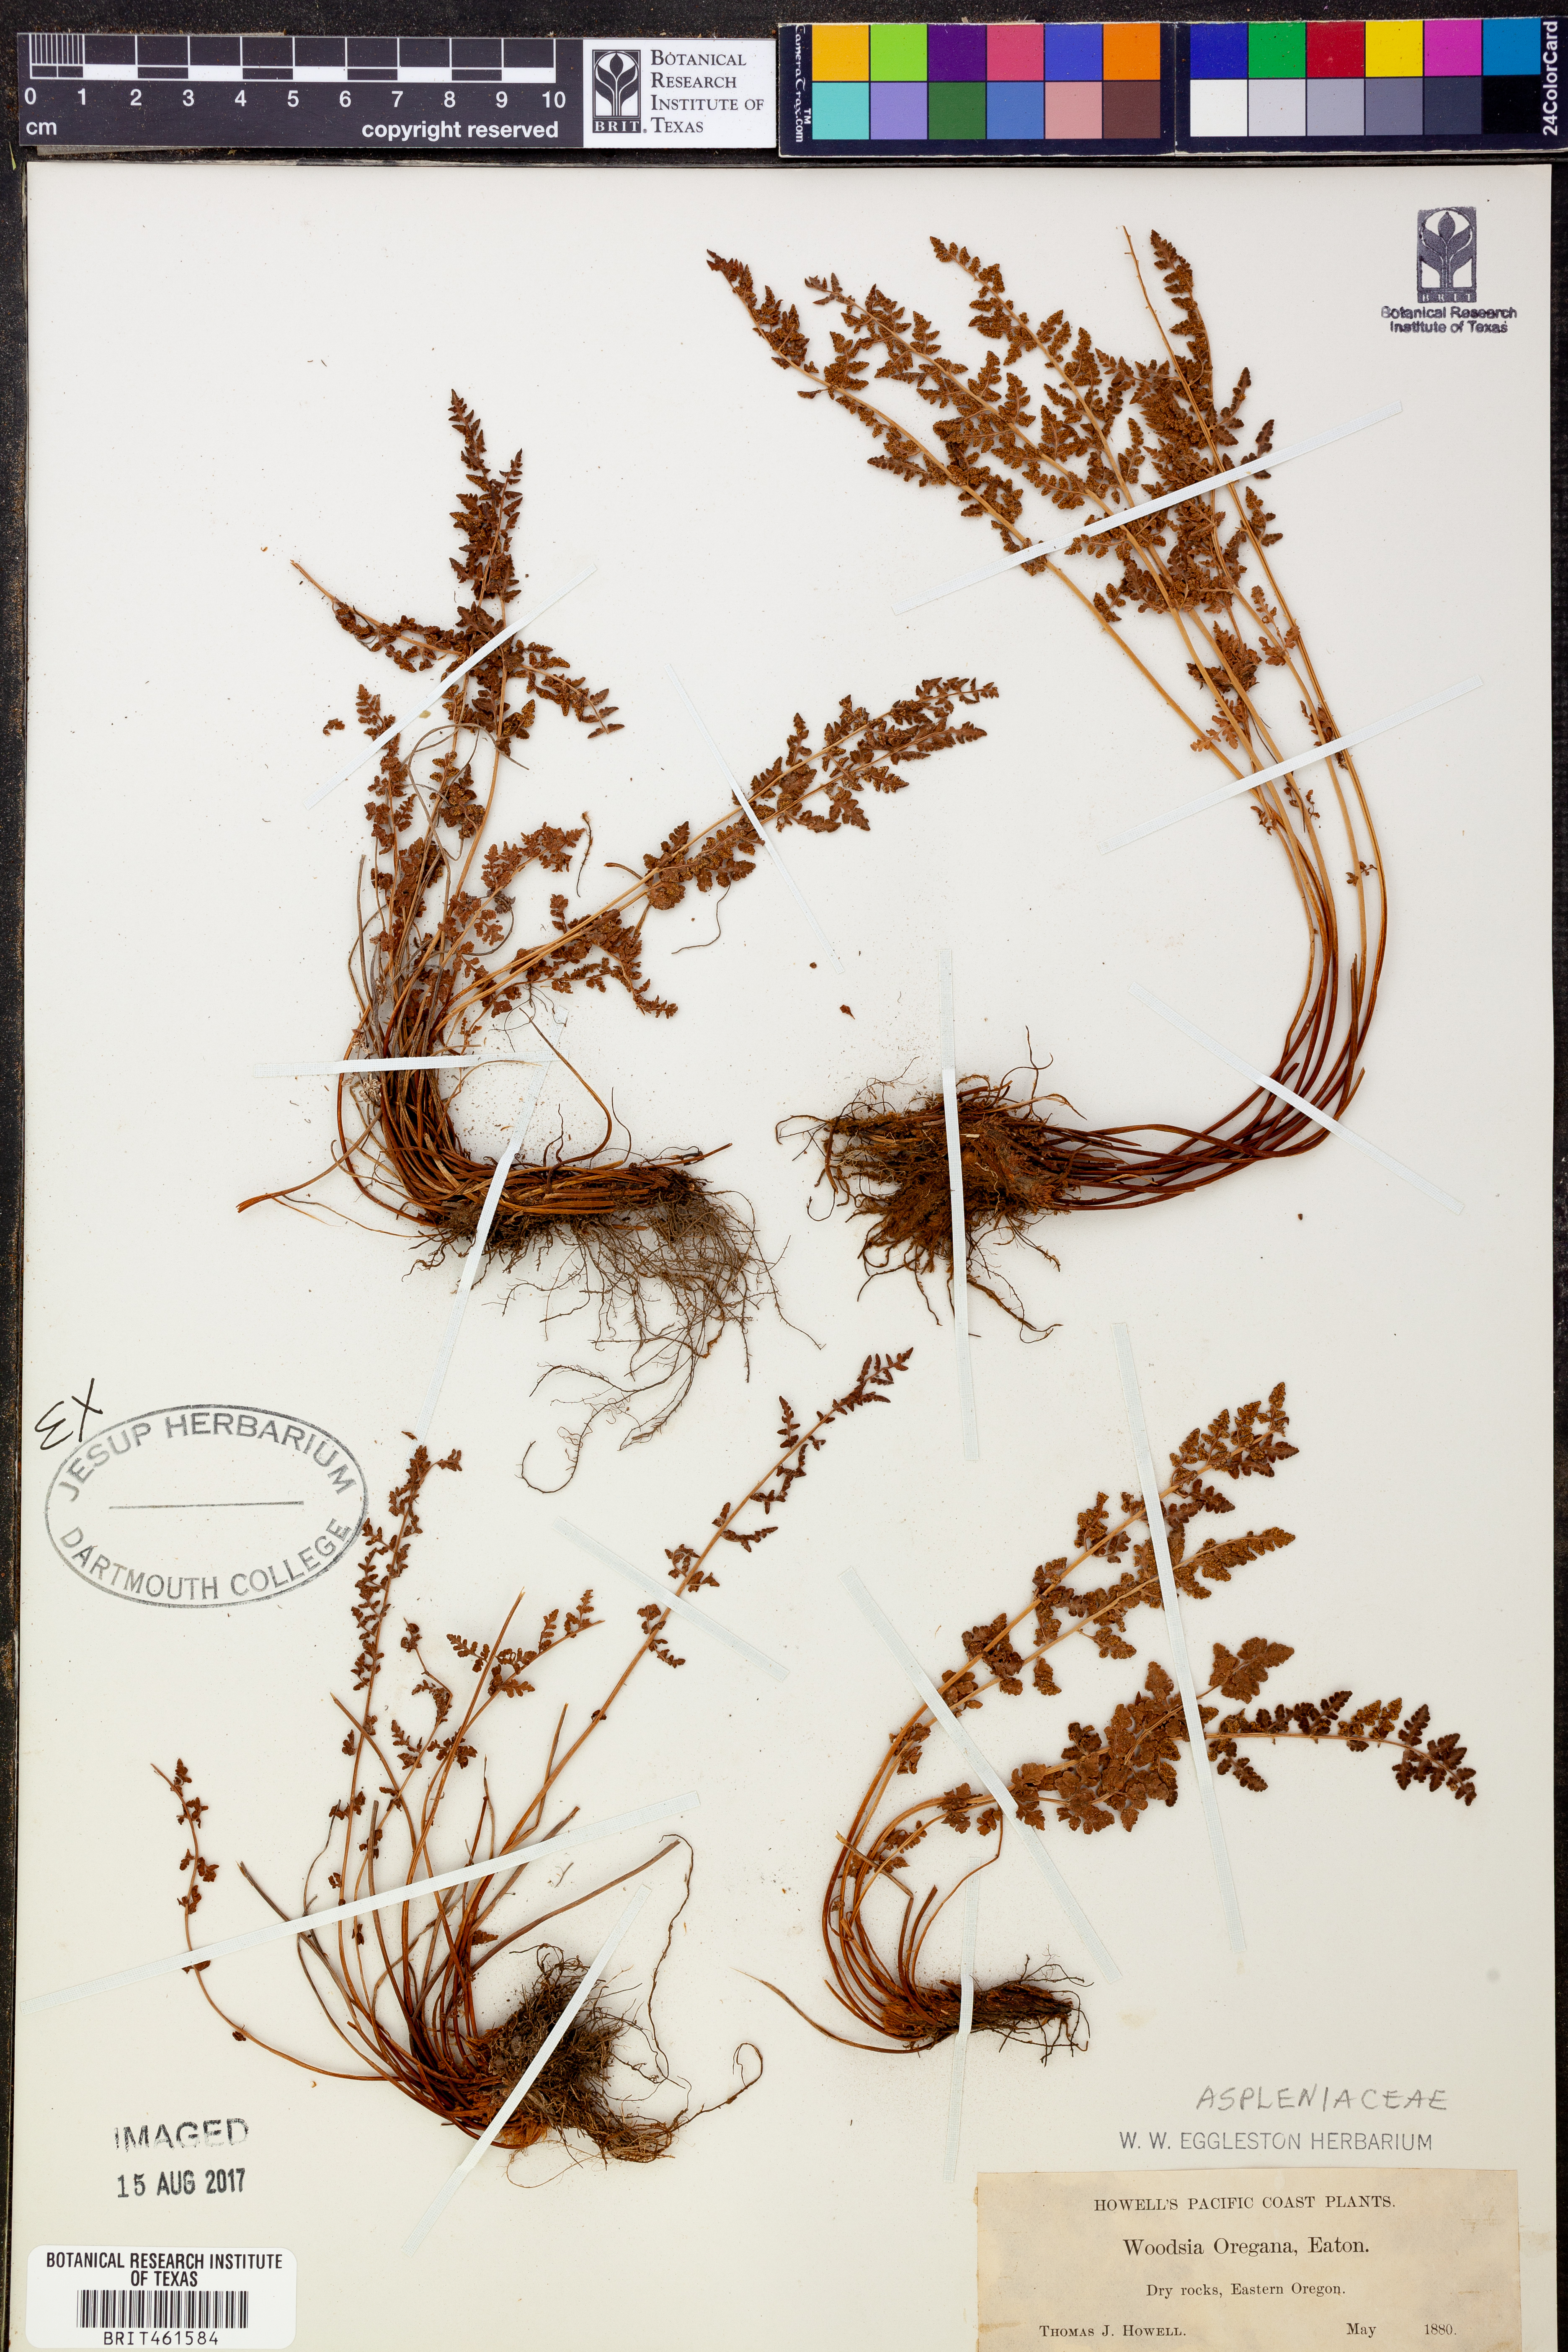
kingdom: Plantae
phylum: Tracheophyta
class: Polypodiopsida
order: Polypodiales
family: Woodsiaceae
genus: Physematium
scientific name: Physematium oreganum
